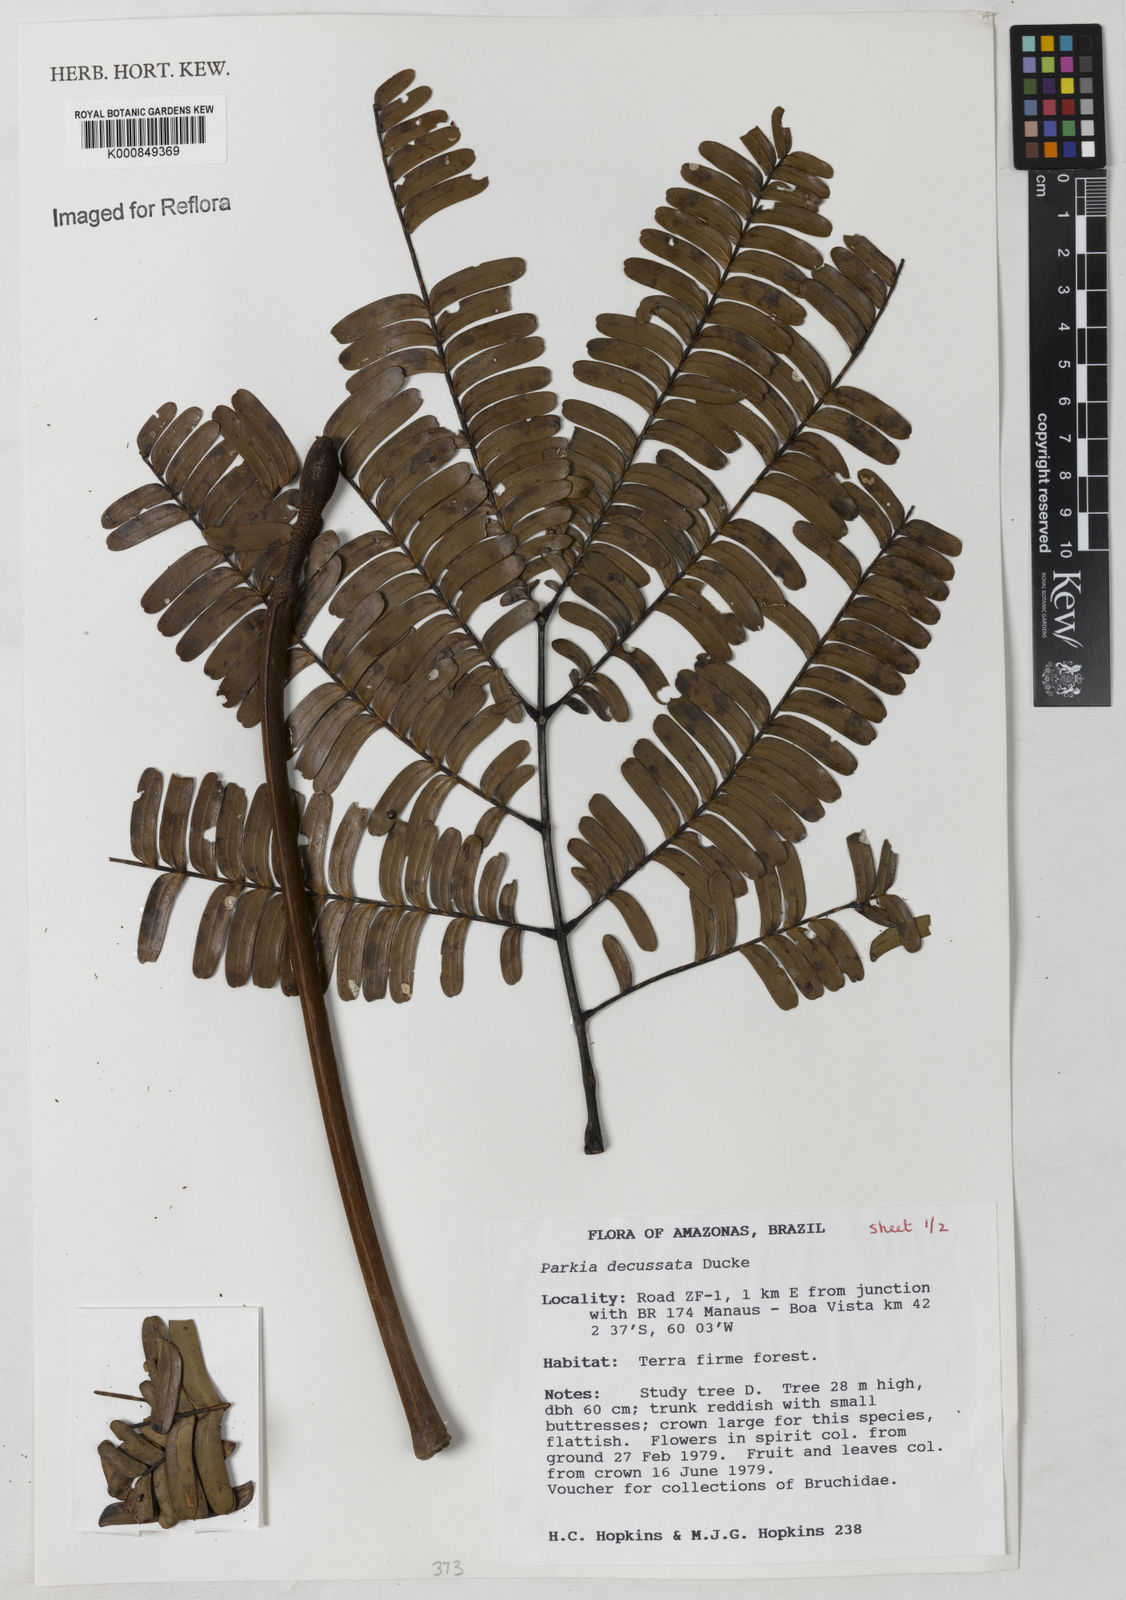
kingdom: Plantae
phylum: Tracheophyta
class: Magnoliopsida
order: Fabales
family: Fabaceae
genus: Parkia
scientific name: Parkia decussata
